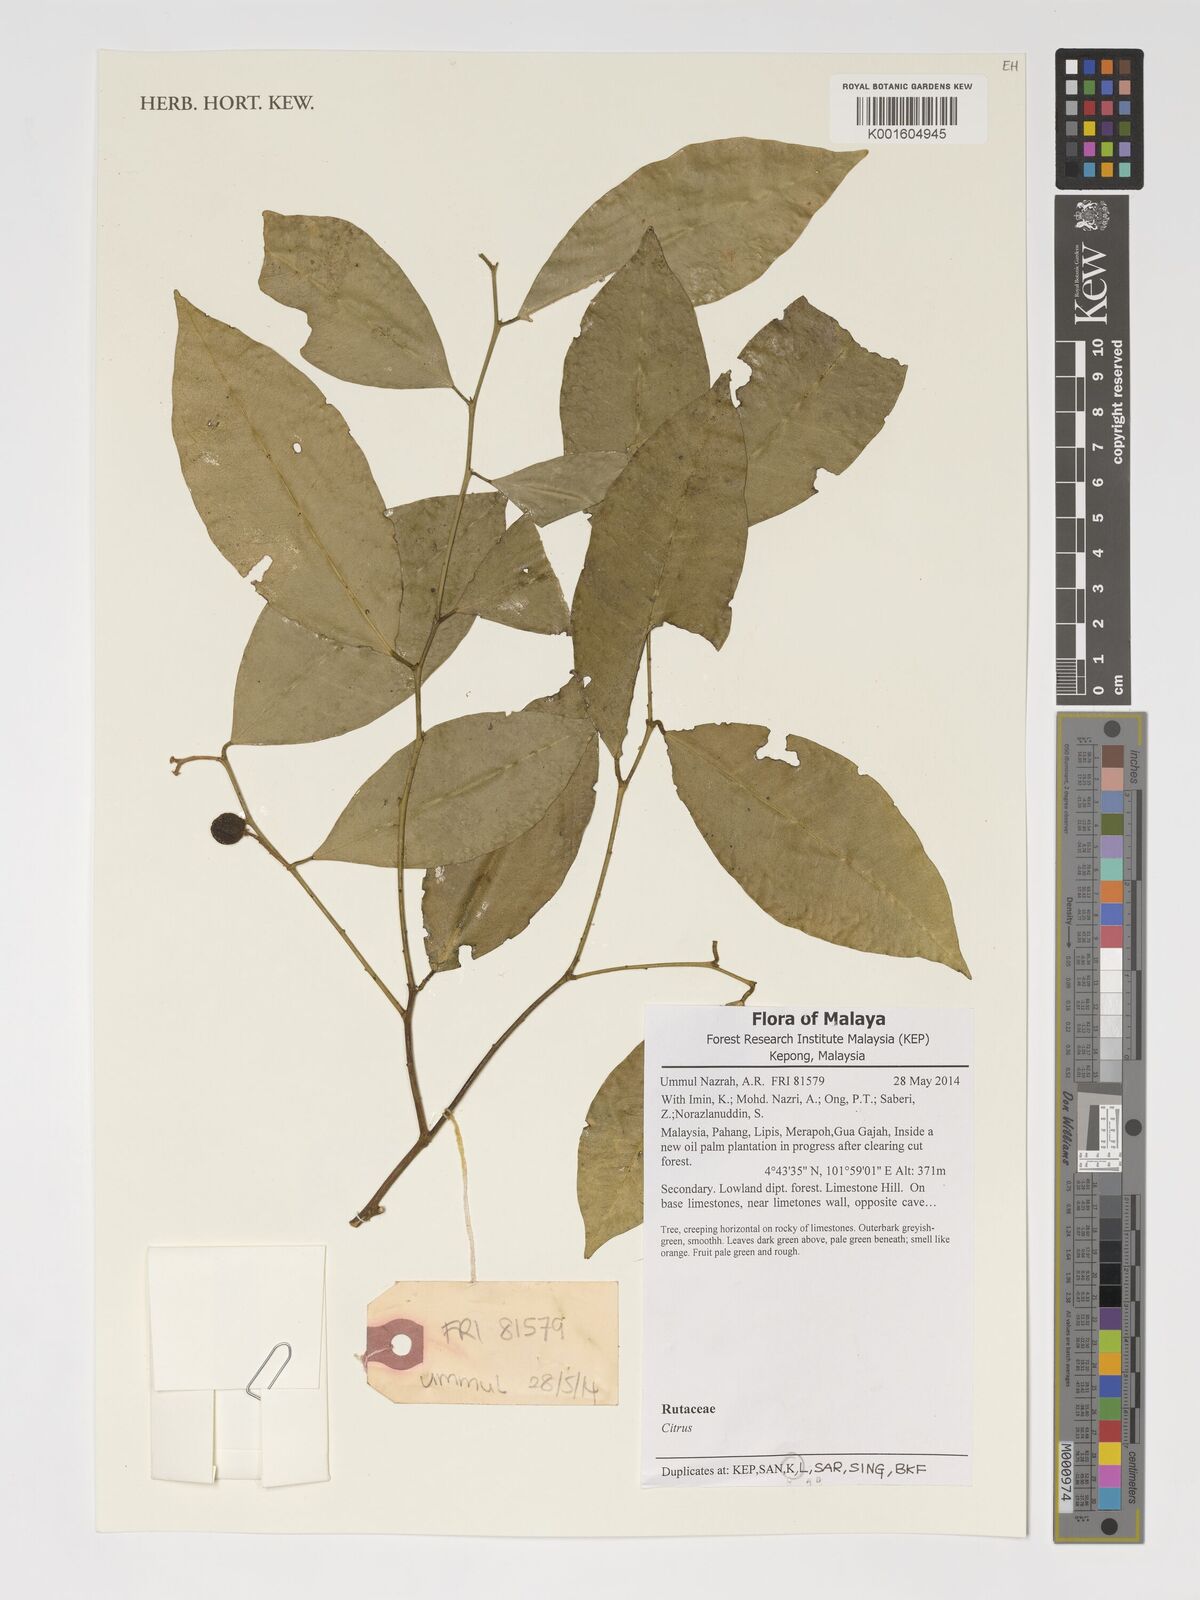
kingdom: Plantae
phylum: Tracheophyta
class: Magnoliopsida
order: Sapindales
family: Rutaceae
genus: Citrus
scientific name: Citrus
